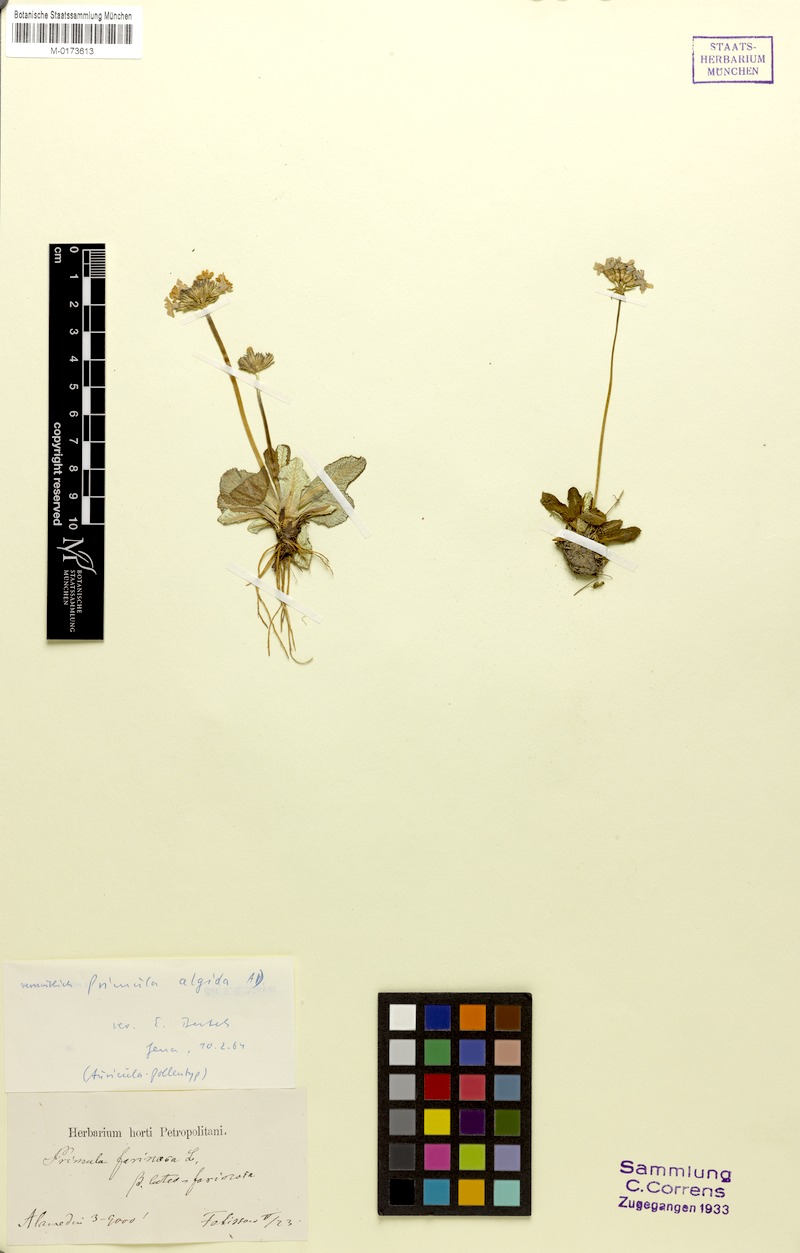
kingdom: Plantae
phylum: Tracheophyta
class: Magnoliopsida
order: Ericales
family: Primulaceae
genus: Primula
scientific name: Primula algida
